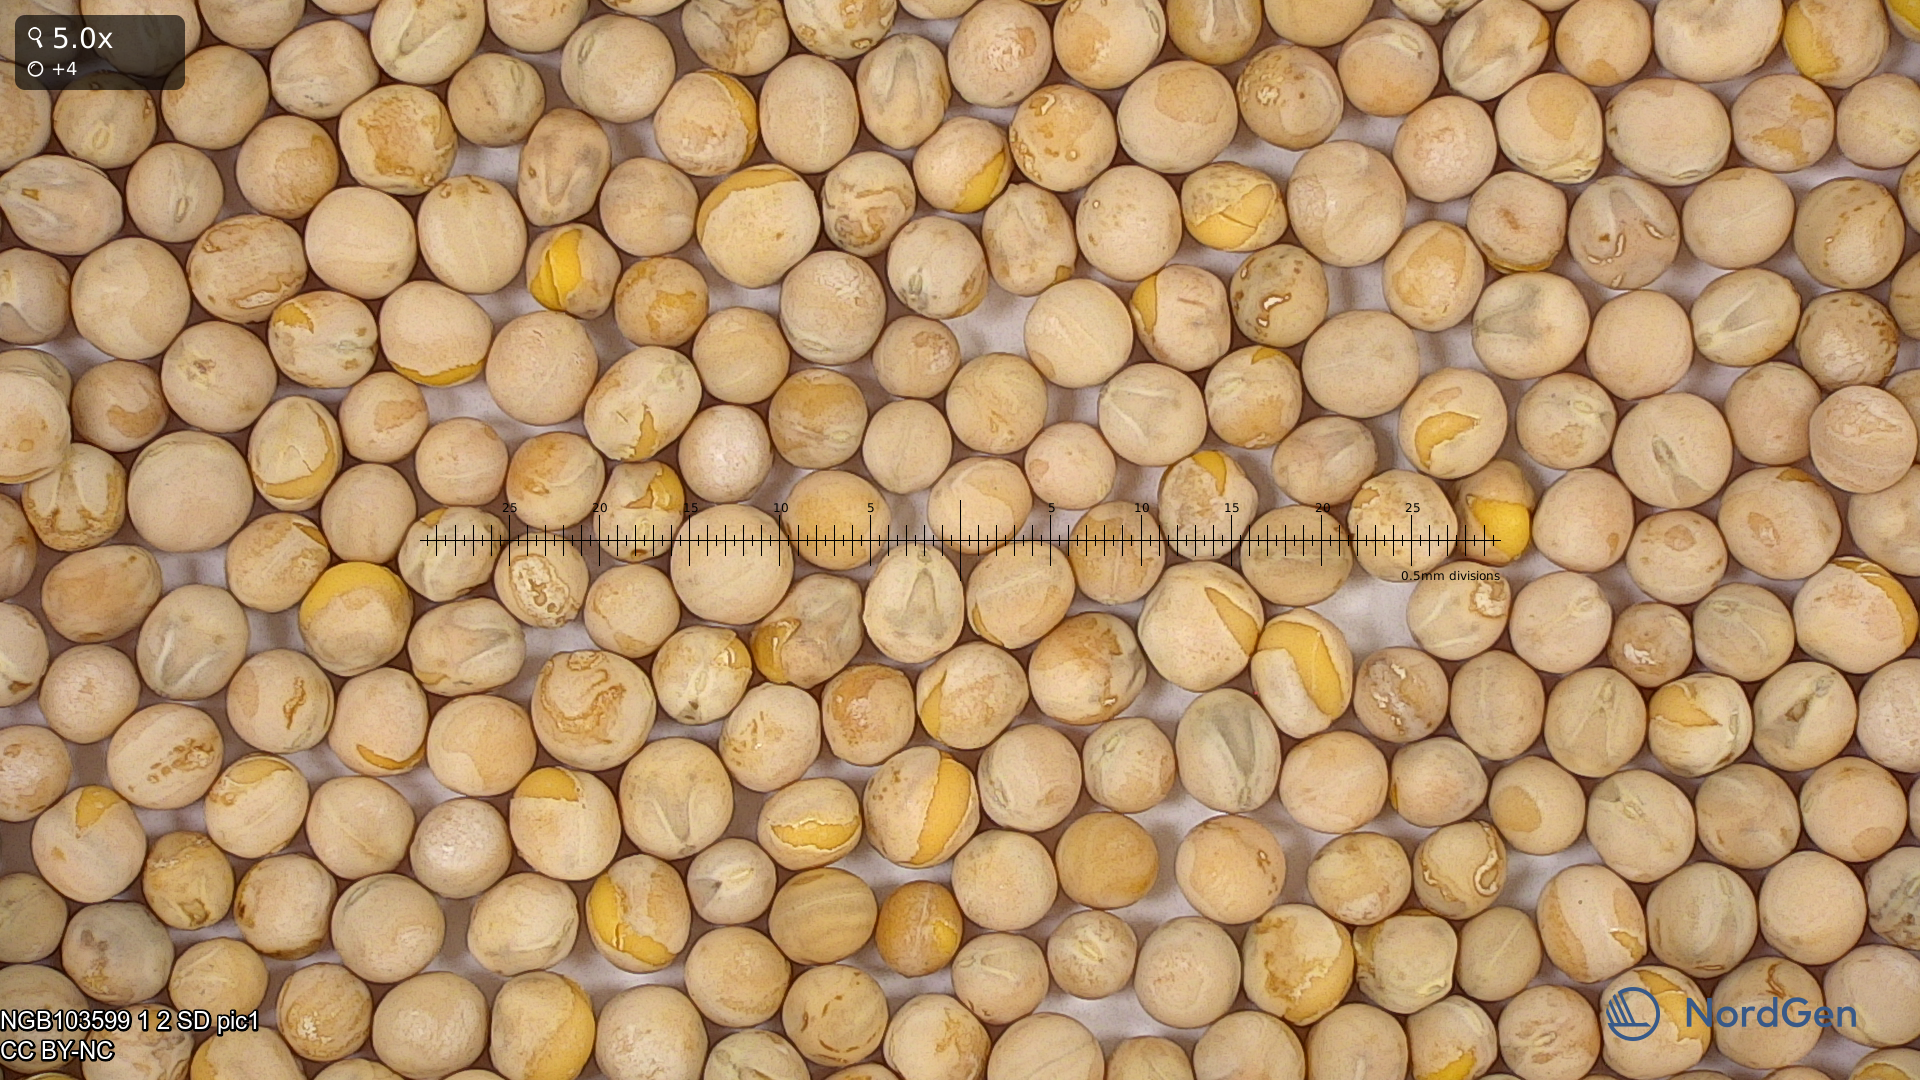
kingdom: Plantae
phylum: Tracheophyta
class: Magnoliopsida
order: Fabales
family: Fabaceae
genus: Lathyrus
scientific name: Lathyrus oleraceus
